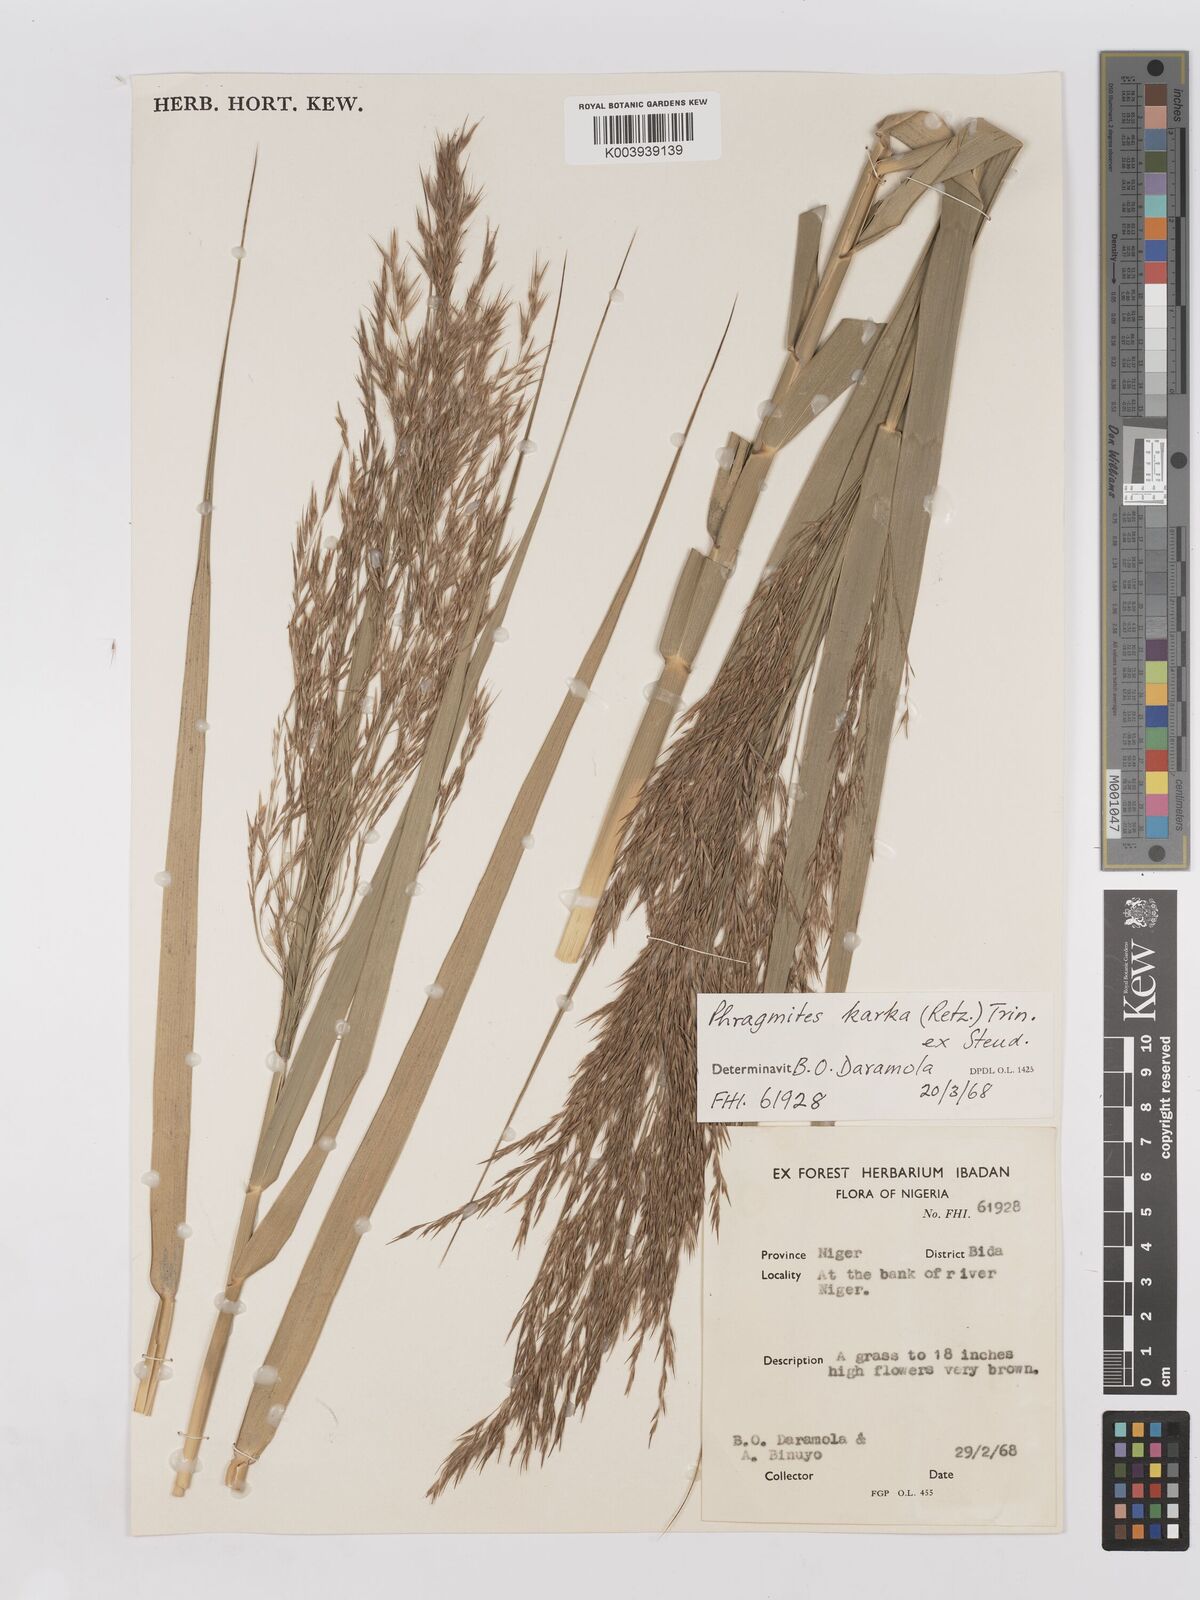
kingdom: Plantae
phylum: Tracheophyta
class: Liliopsida
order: Poales
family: Poaceae
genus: Phragmites
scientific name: Phragmites karka
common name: Tropical reed
